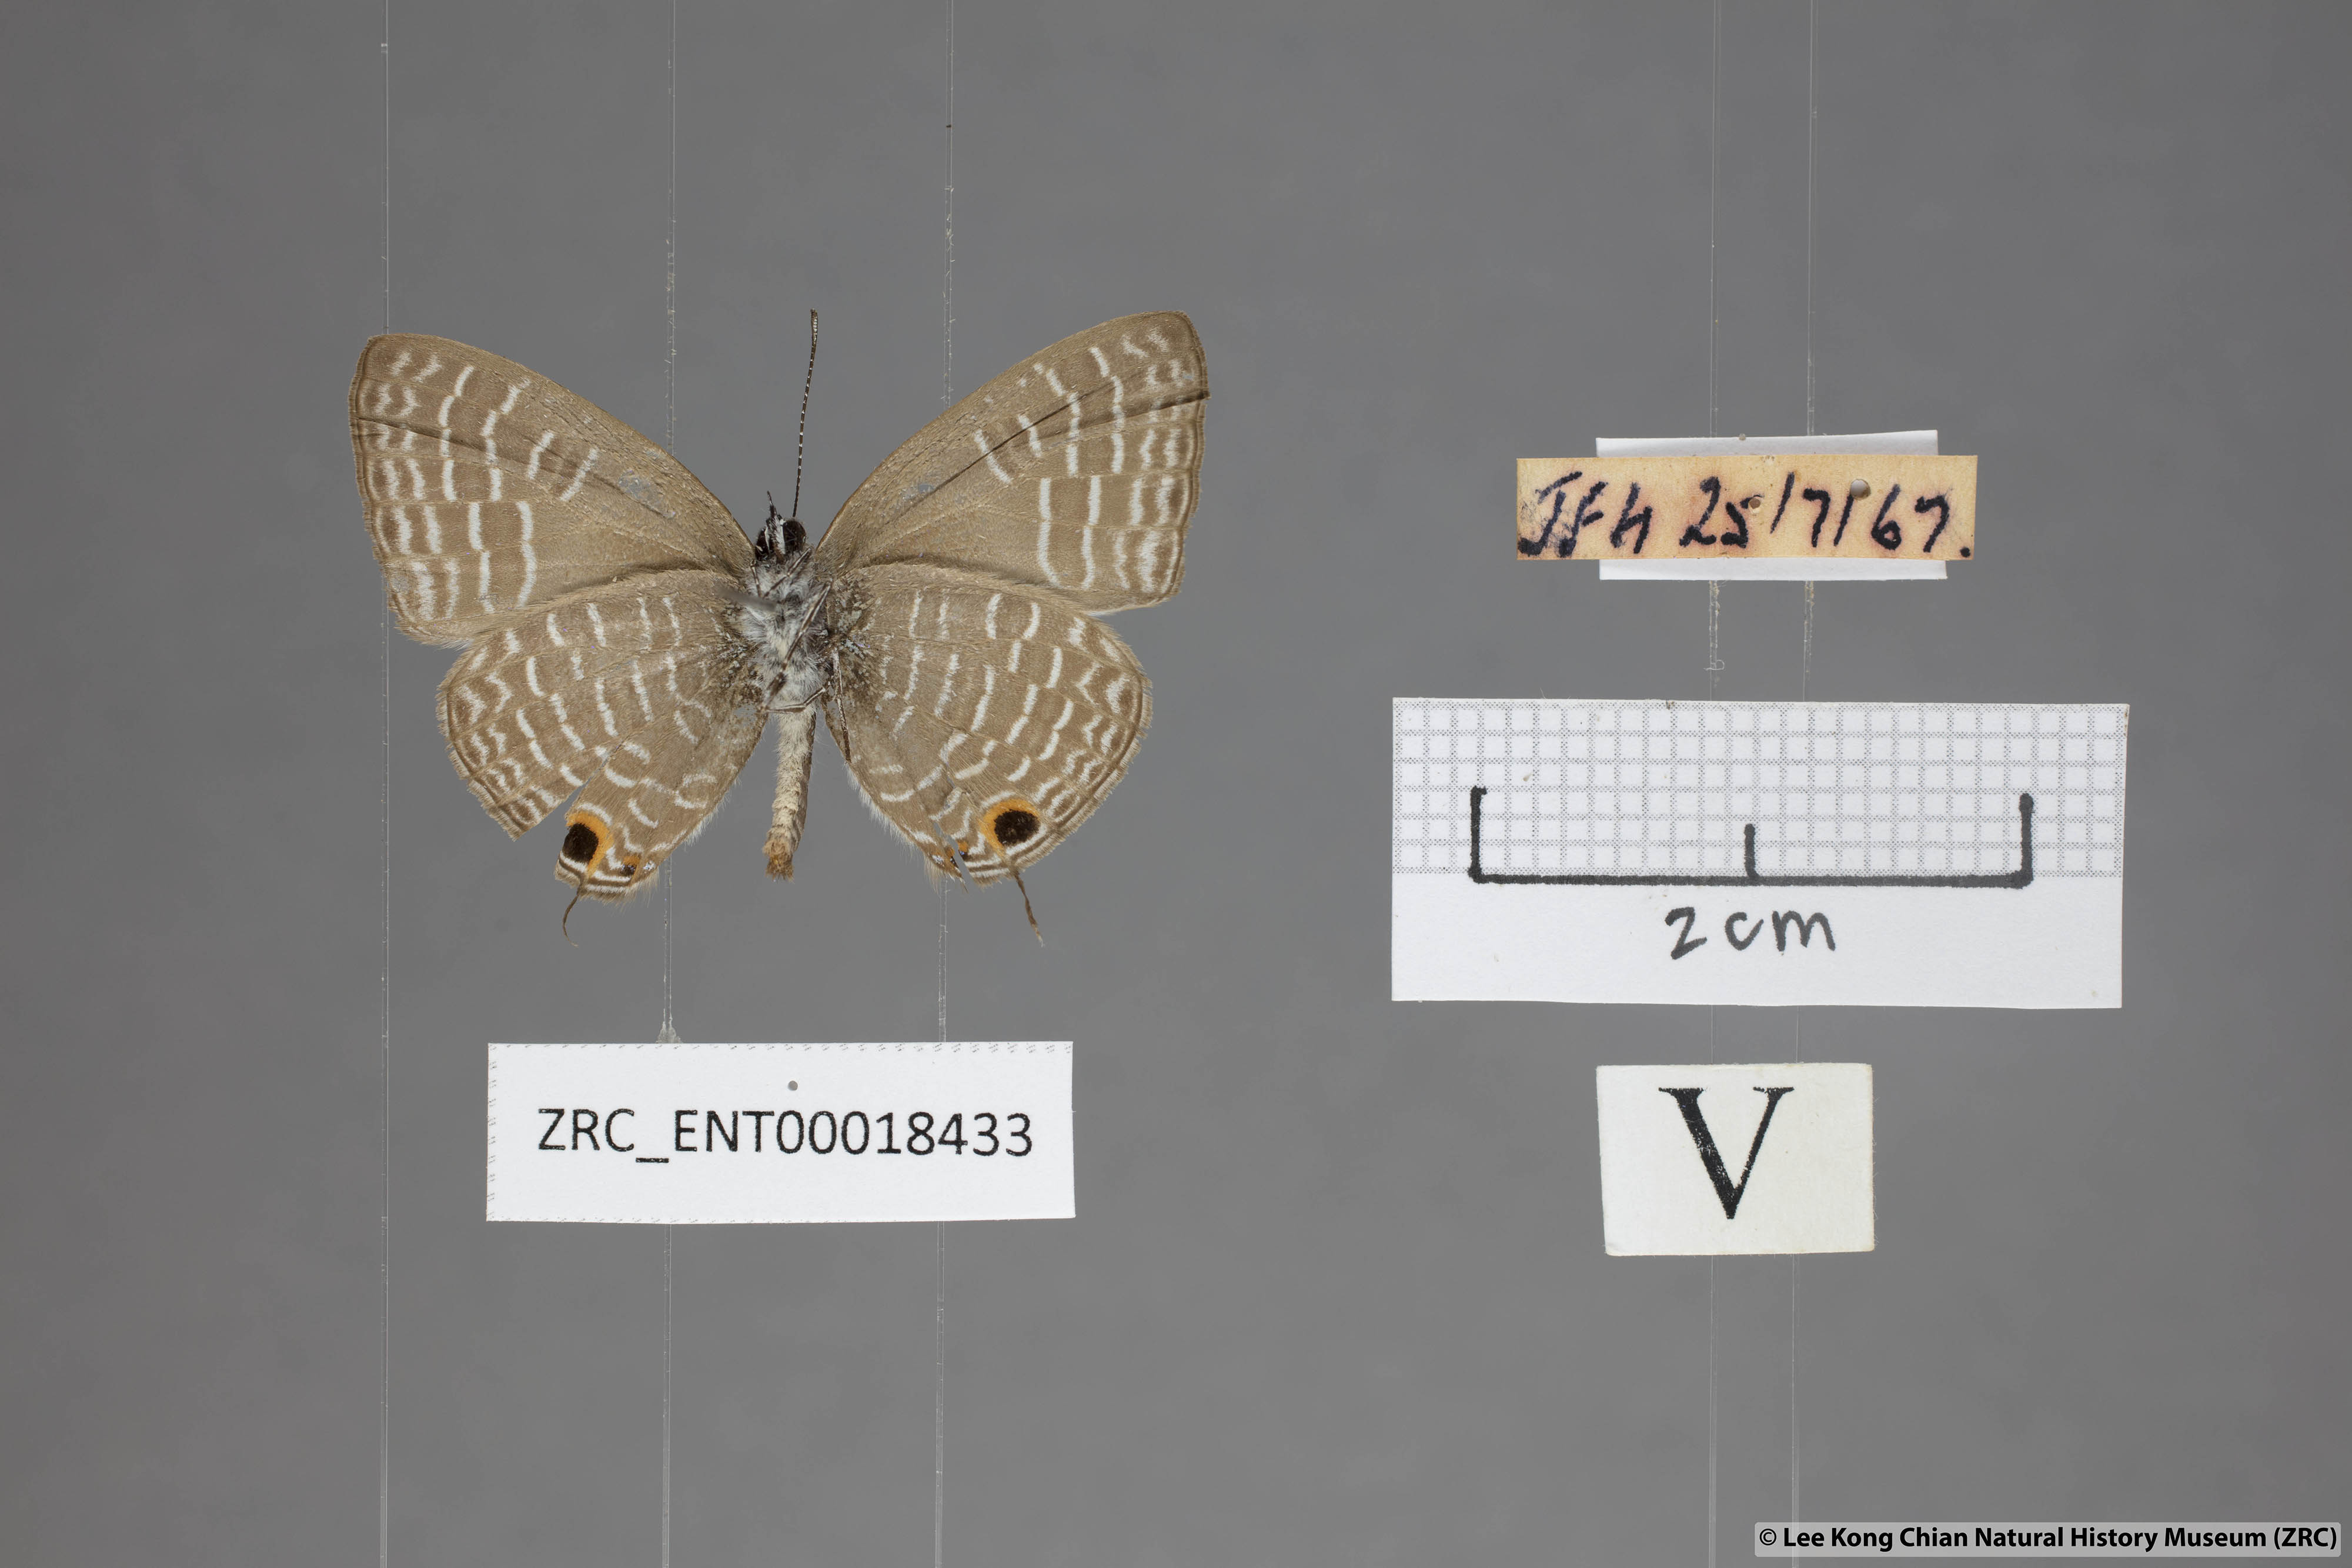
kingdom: Animalia
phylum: Arthropoda
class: Insecta
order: Lepidoptera
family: Lycaenidae
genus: Nacaduba
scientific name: Nacaduba pendleburyi
